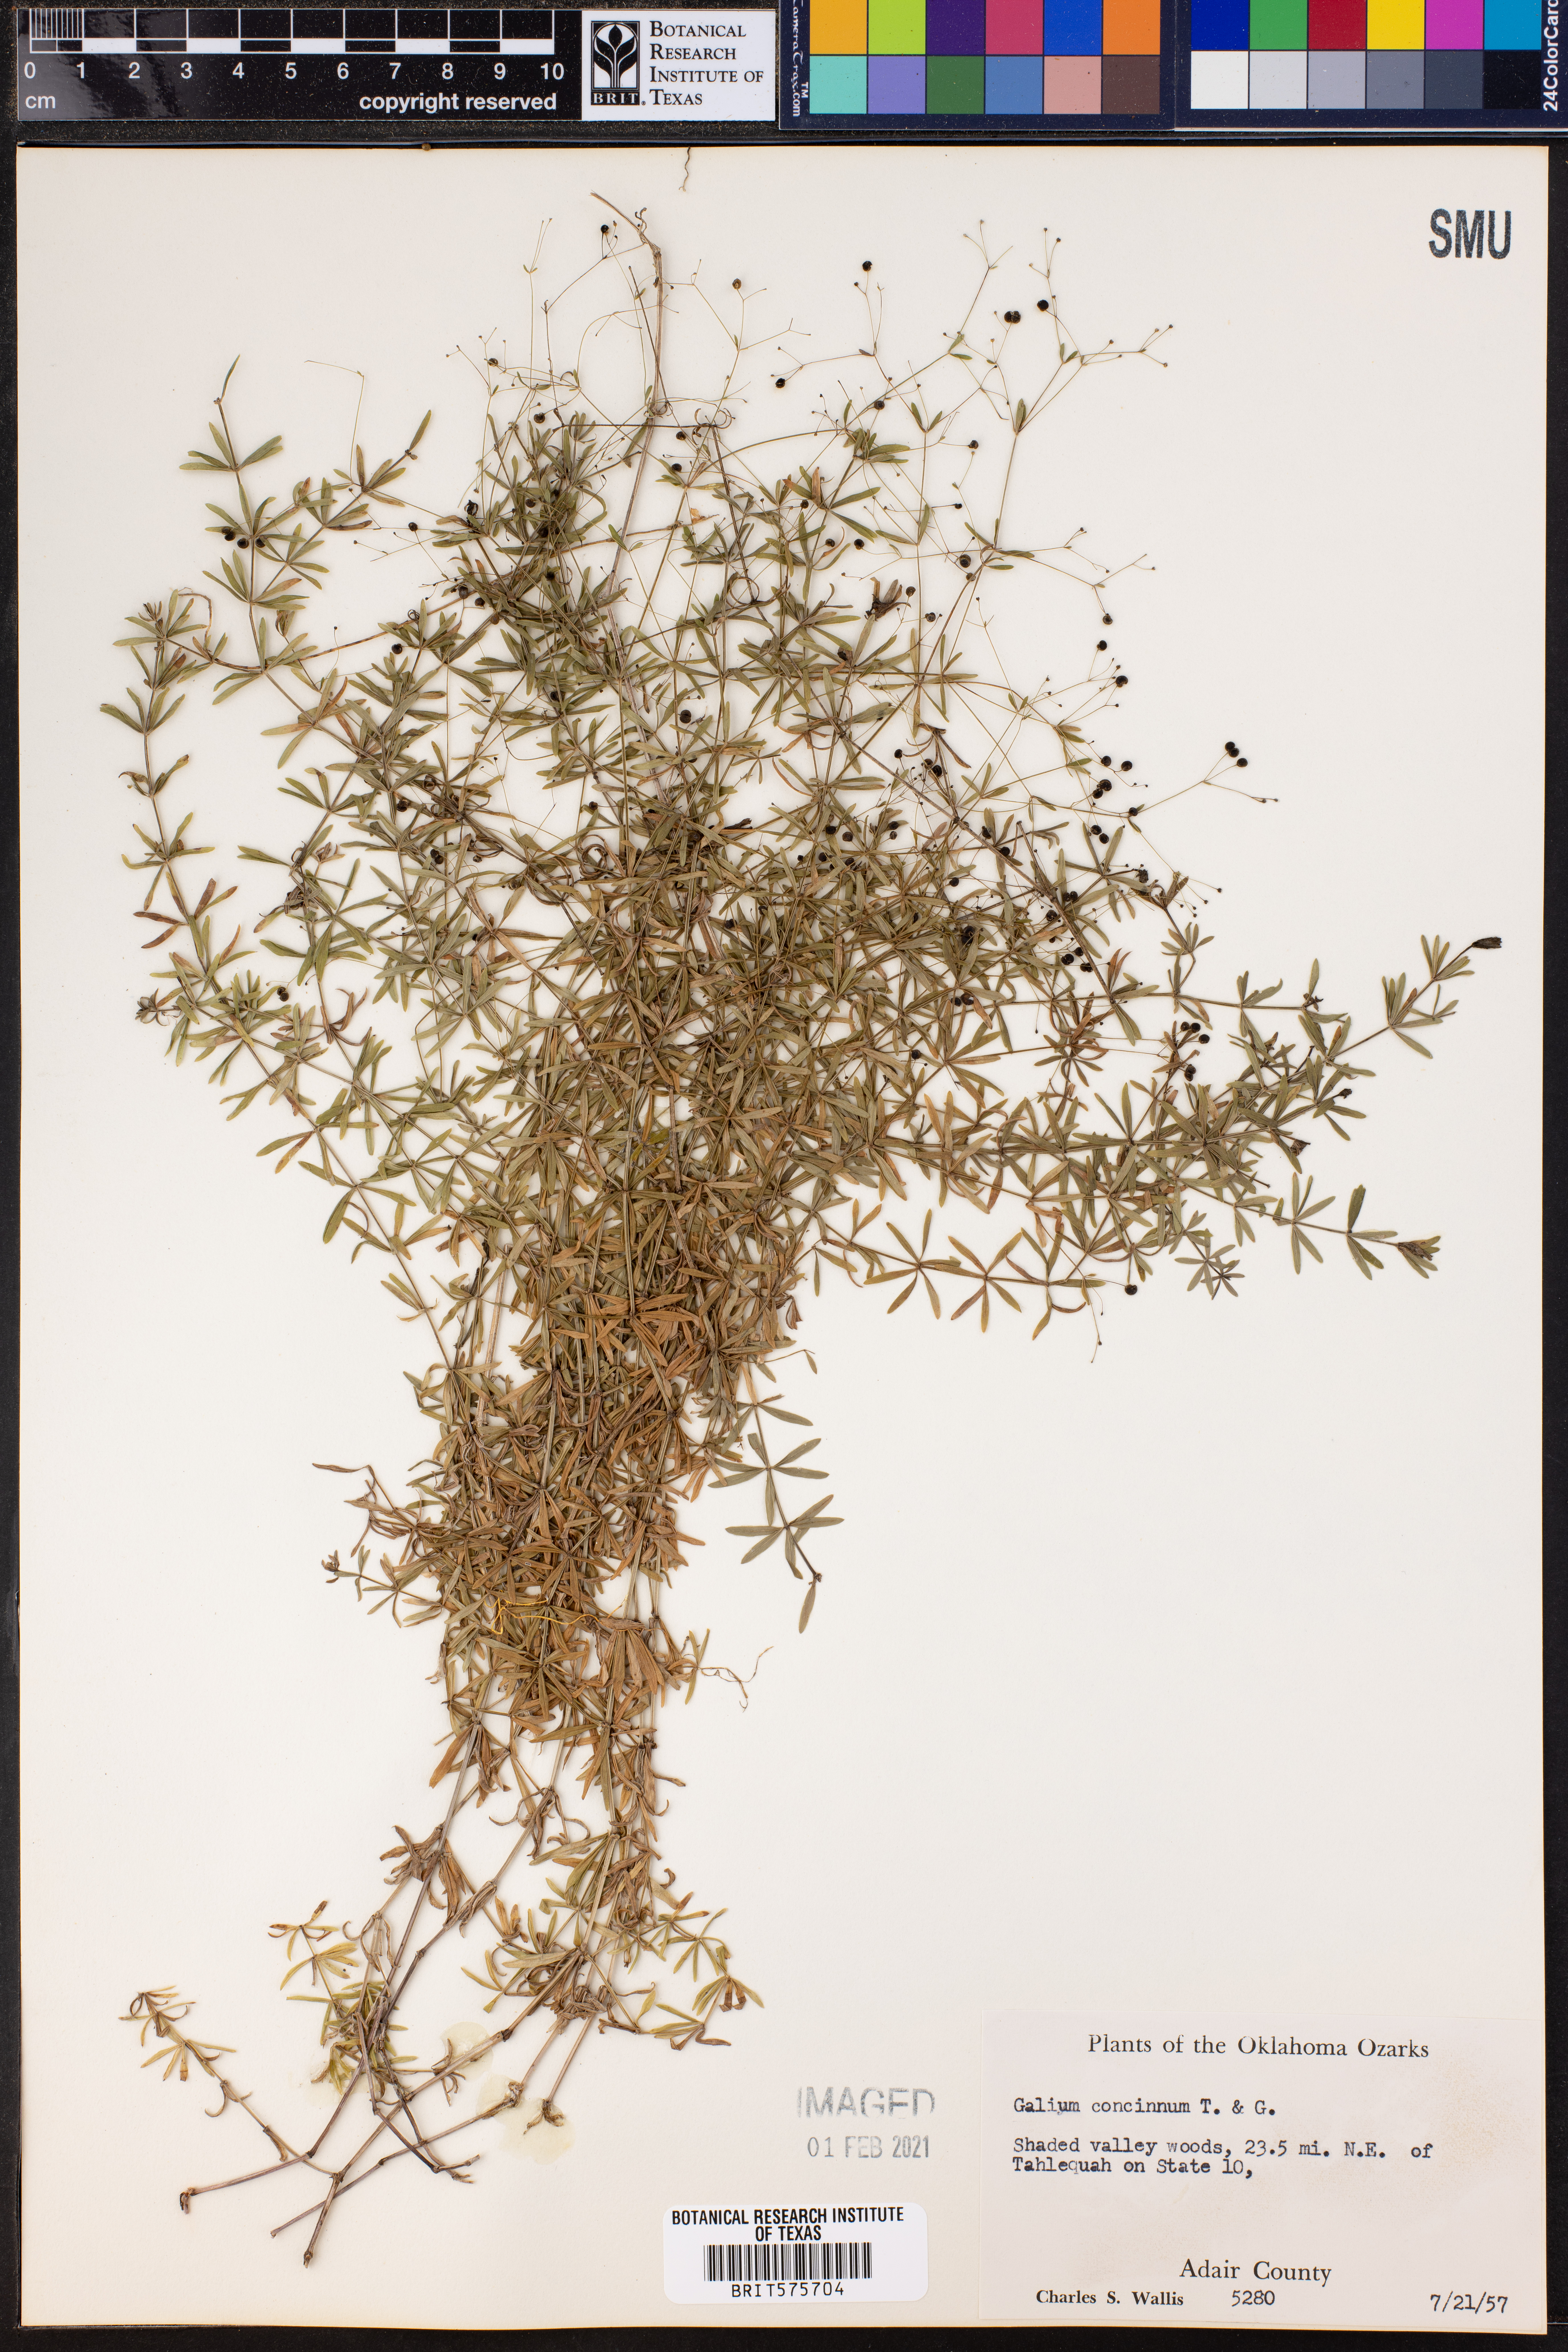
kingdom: Plantae
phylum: Tracheophyta
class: Magnoliopsida
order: Gentianales
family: Rubiaceae
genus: Galium
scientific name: Galium concinnum
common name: Shining bedstraw
